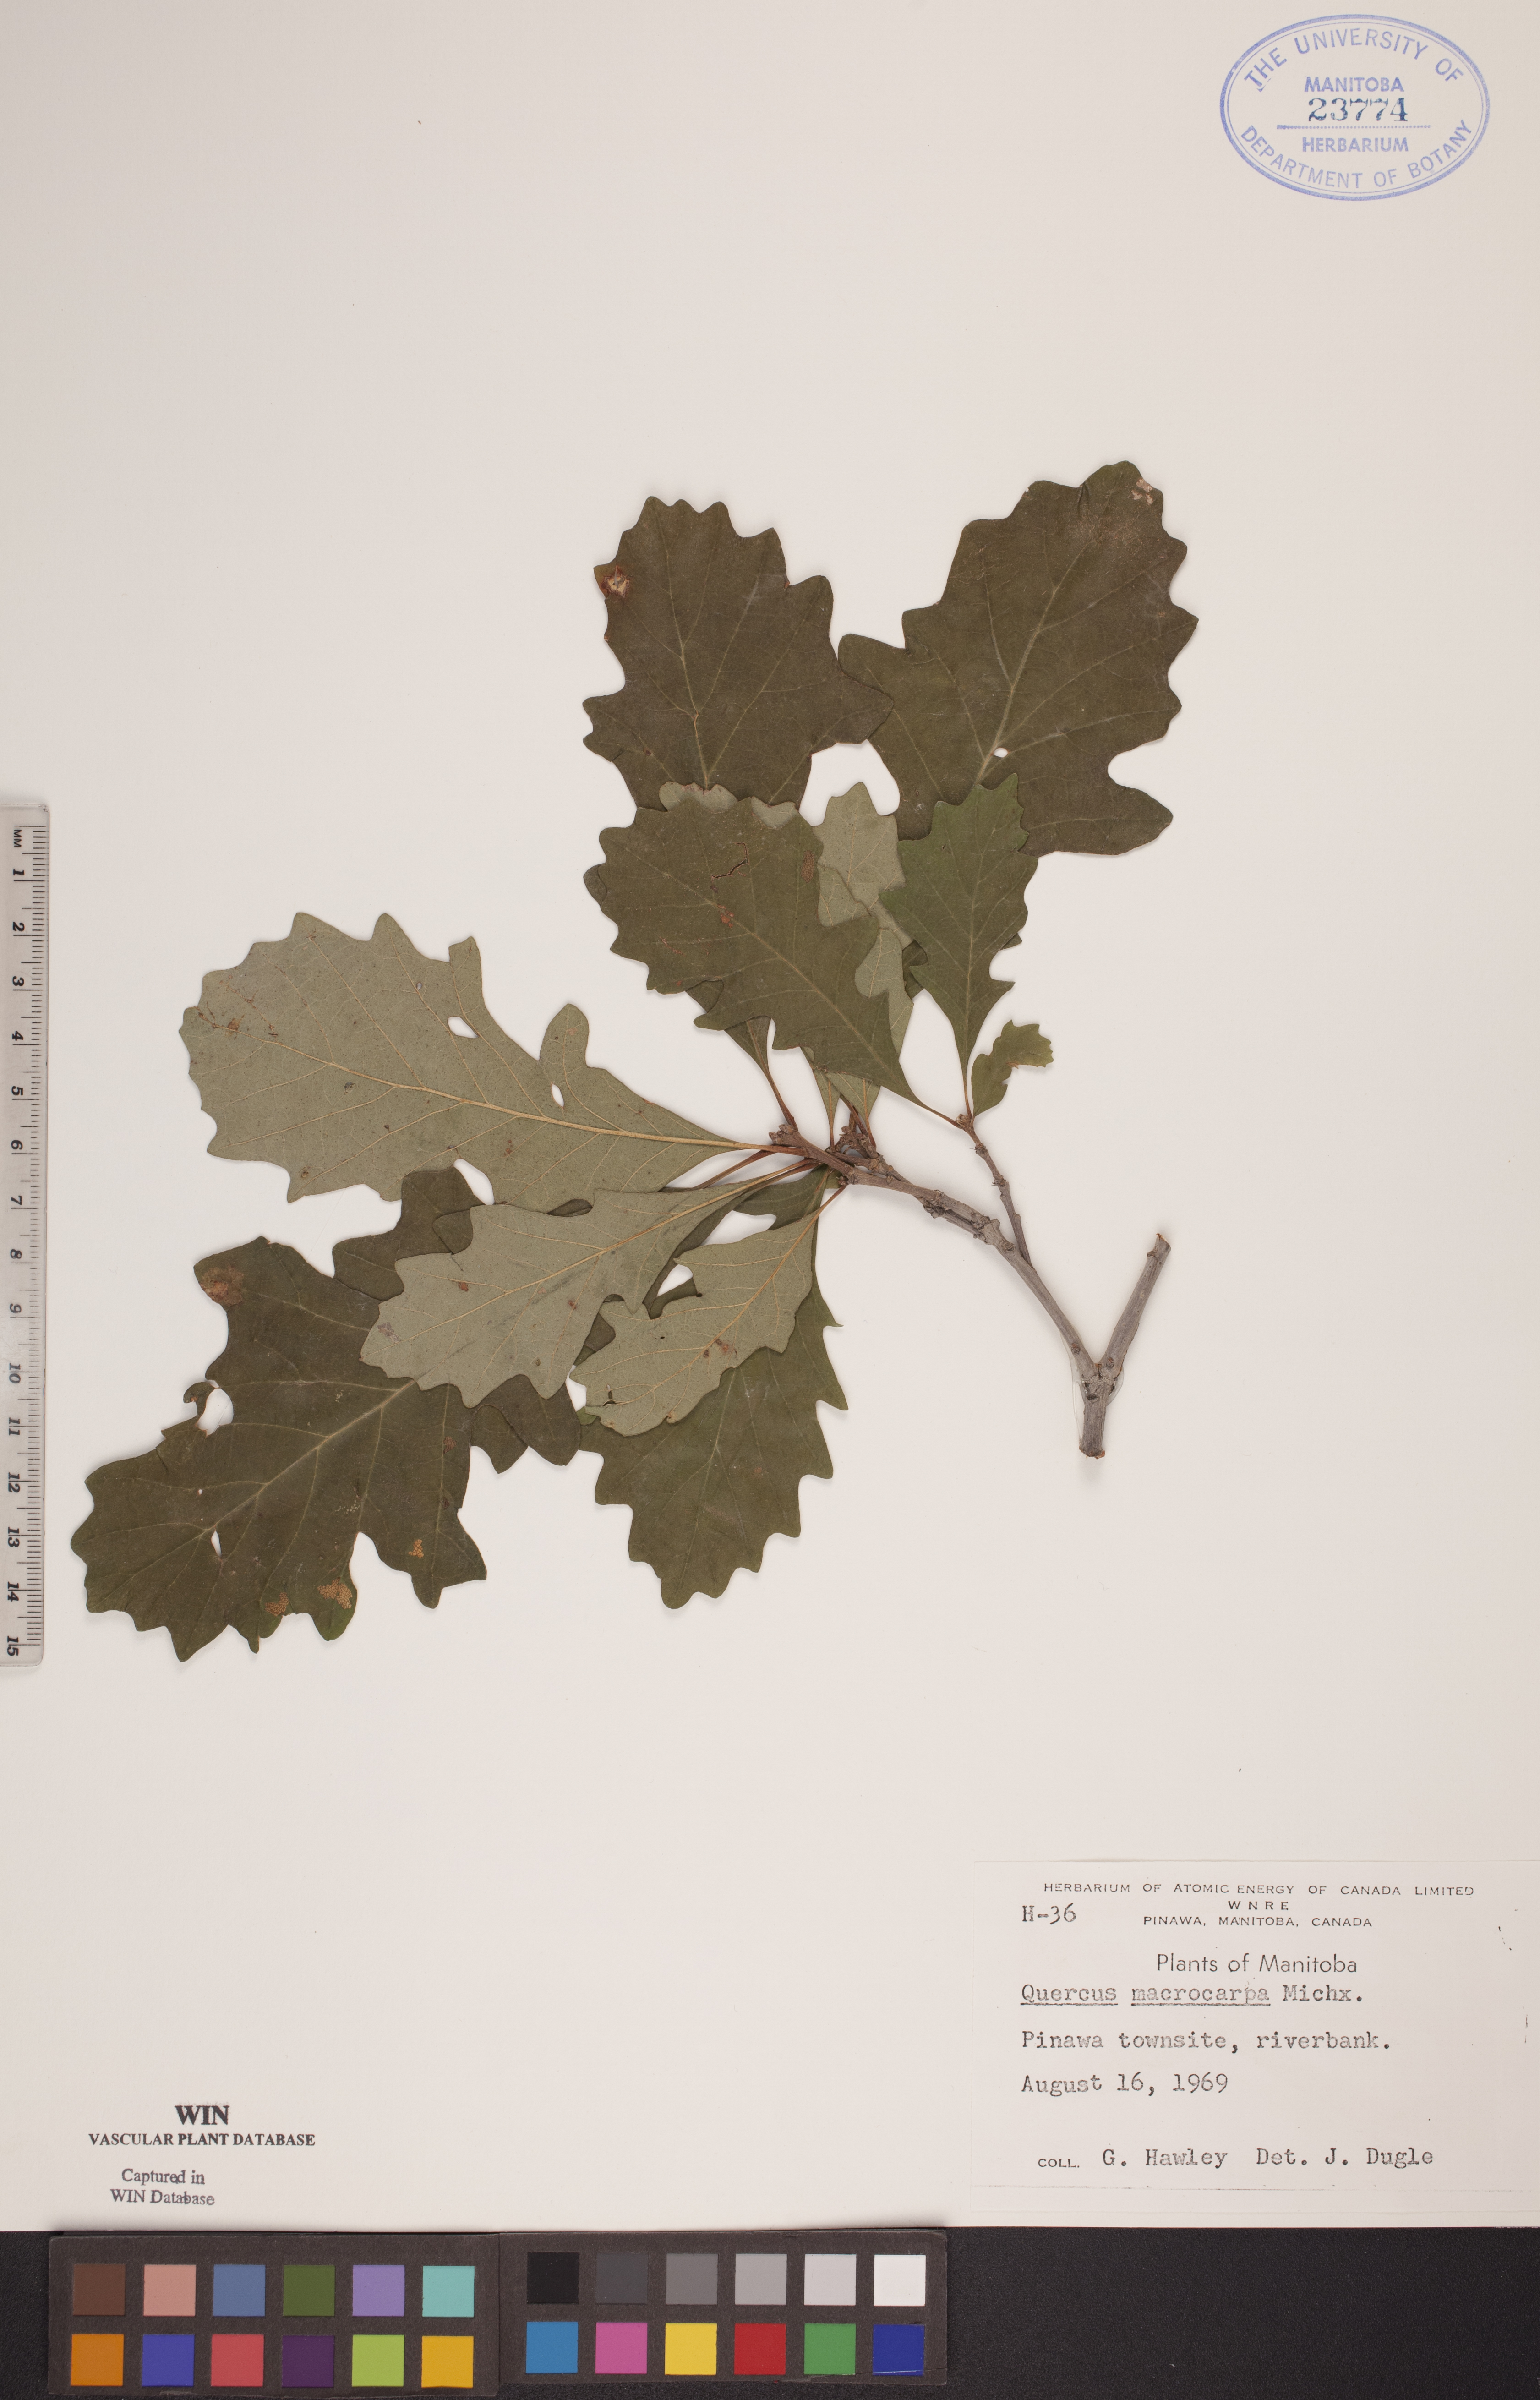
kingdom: Plantae
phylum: Tracheophyta
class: Magnoliopsida
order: Fagales
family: Fagaceae
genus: Quercus
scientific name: Quercus macrocarpa
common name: Bur oak
